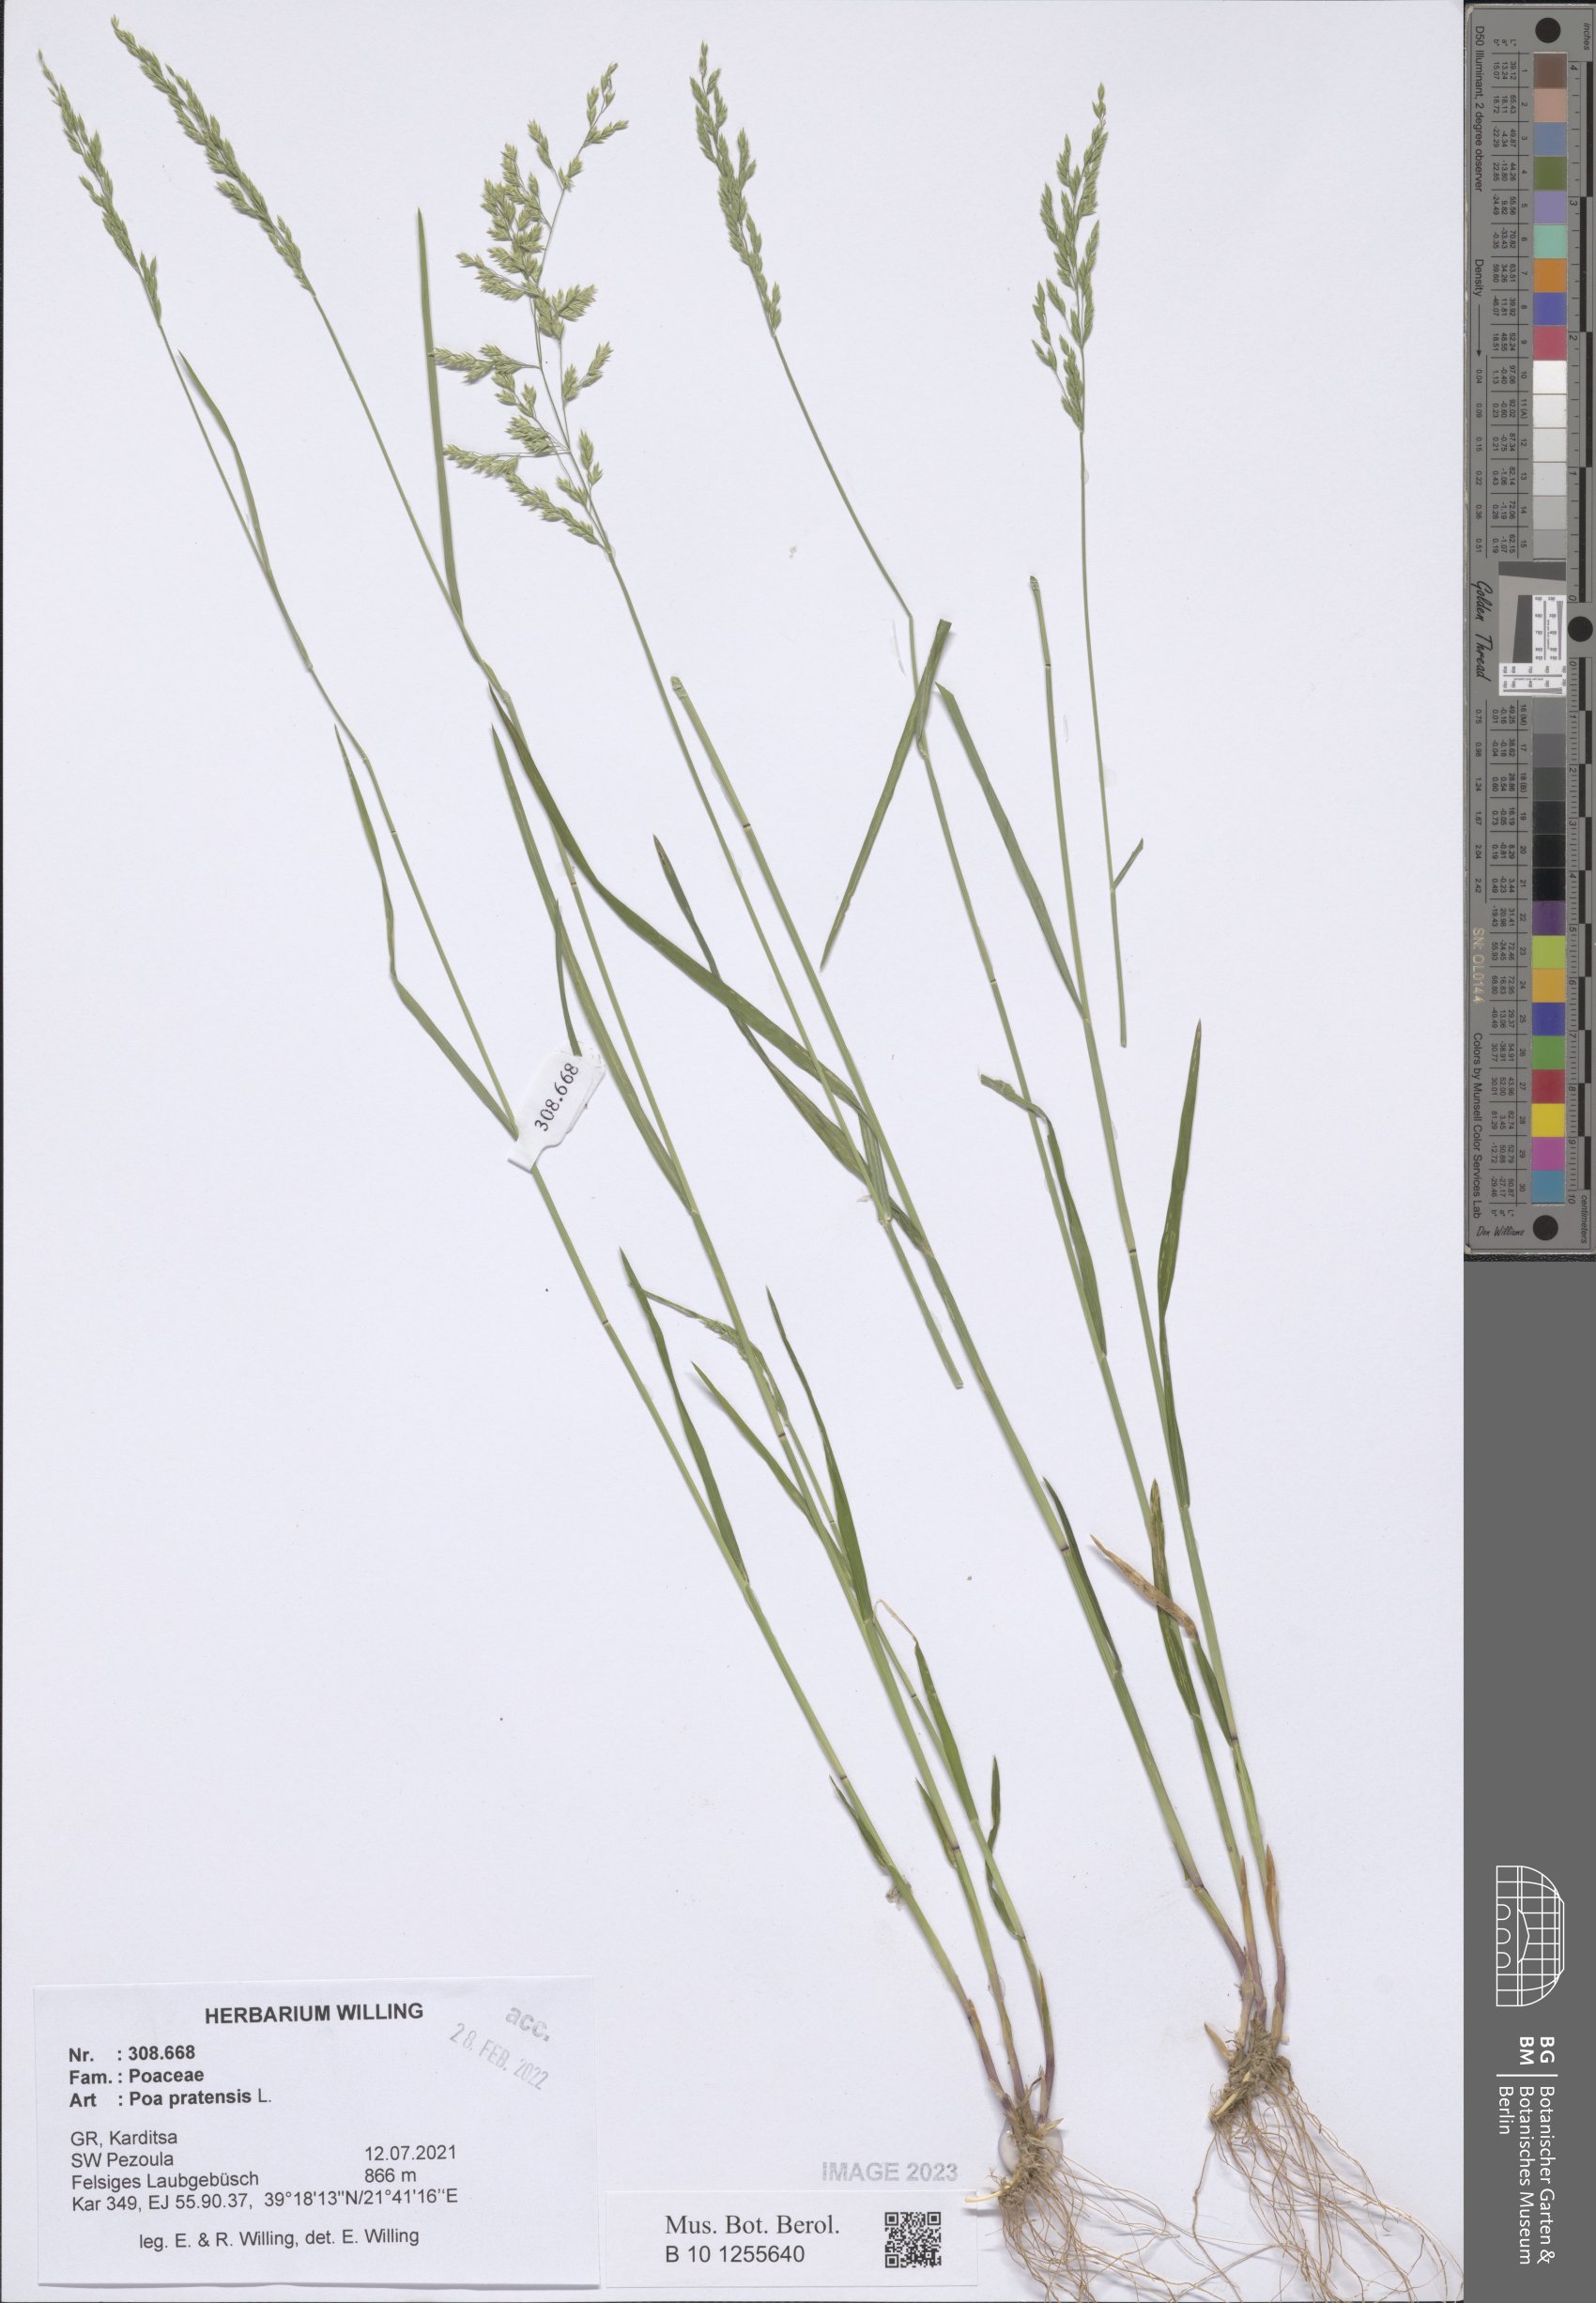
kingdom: Plantae
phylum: Tracheophyta
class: Liliopsida
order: Poales
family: Poaceae
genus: Poa
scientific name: Poa pratensis
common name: Kentucky bluegrass
